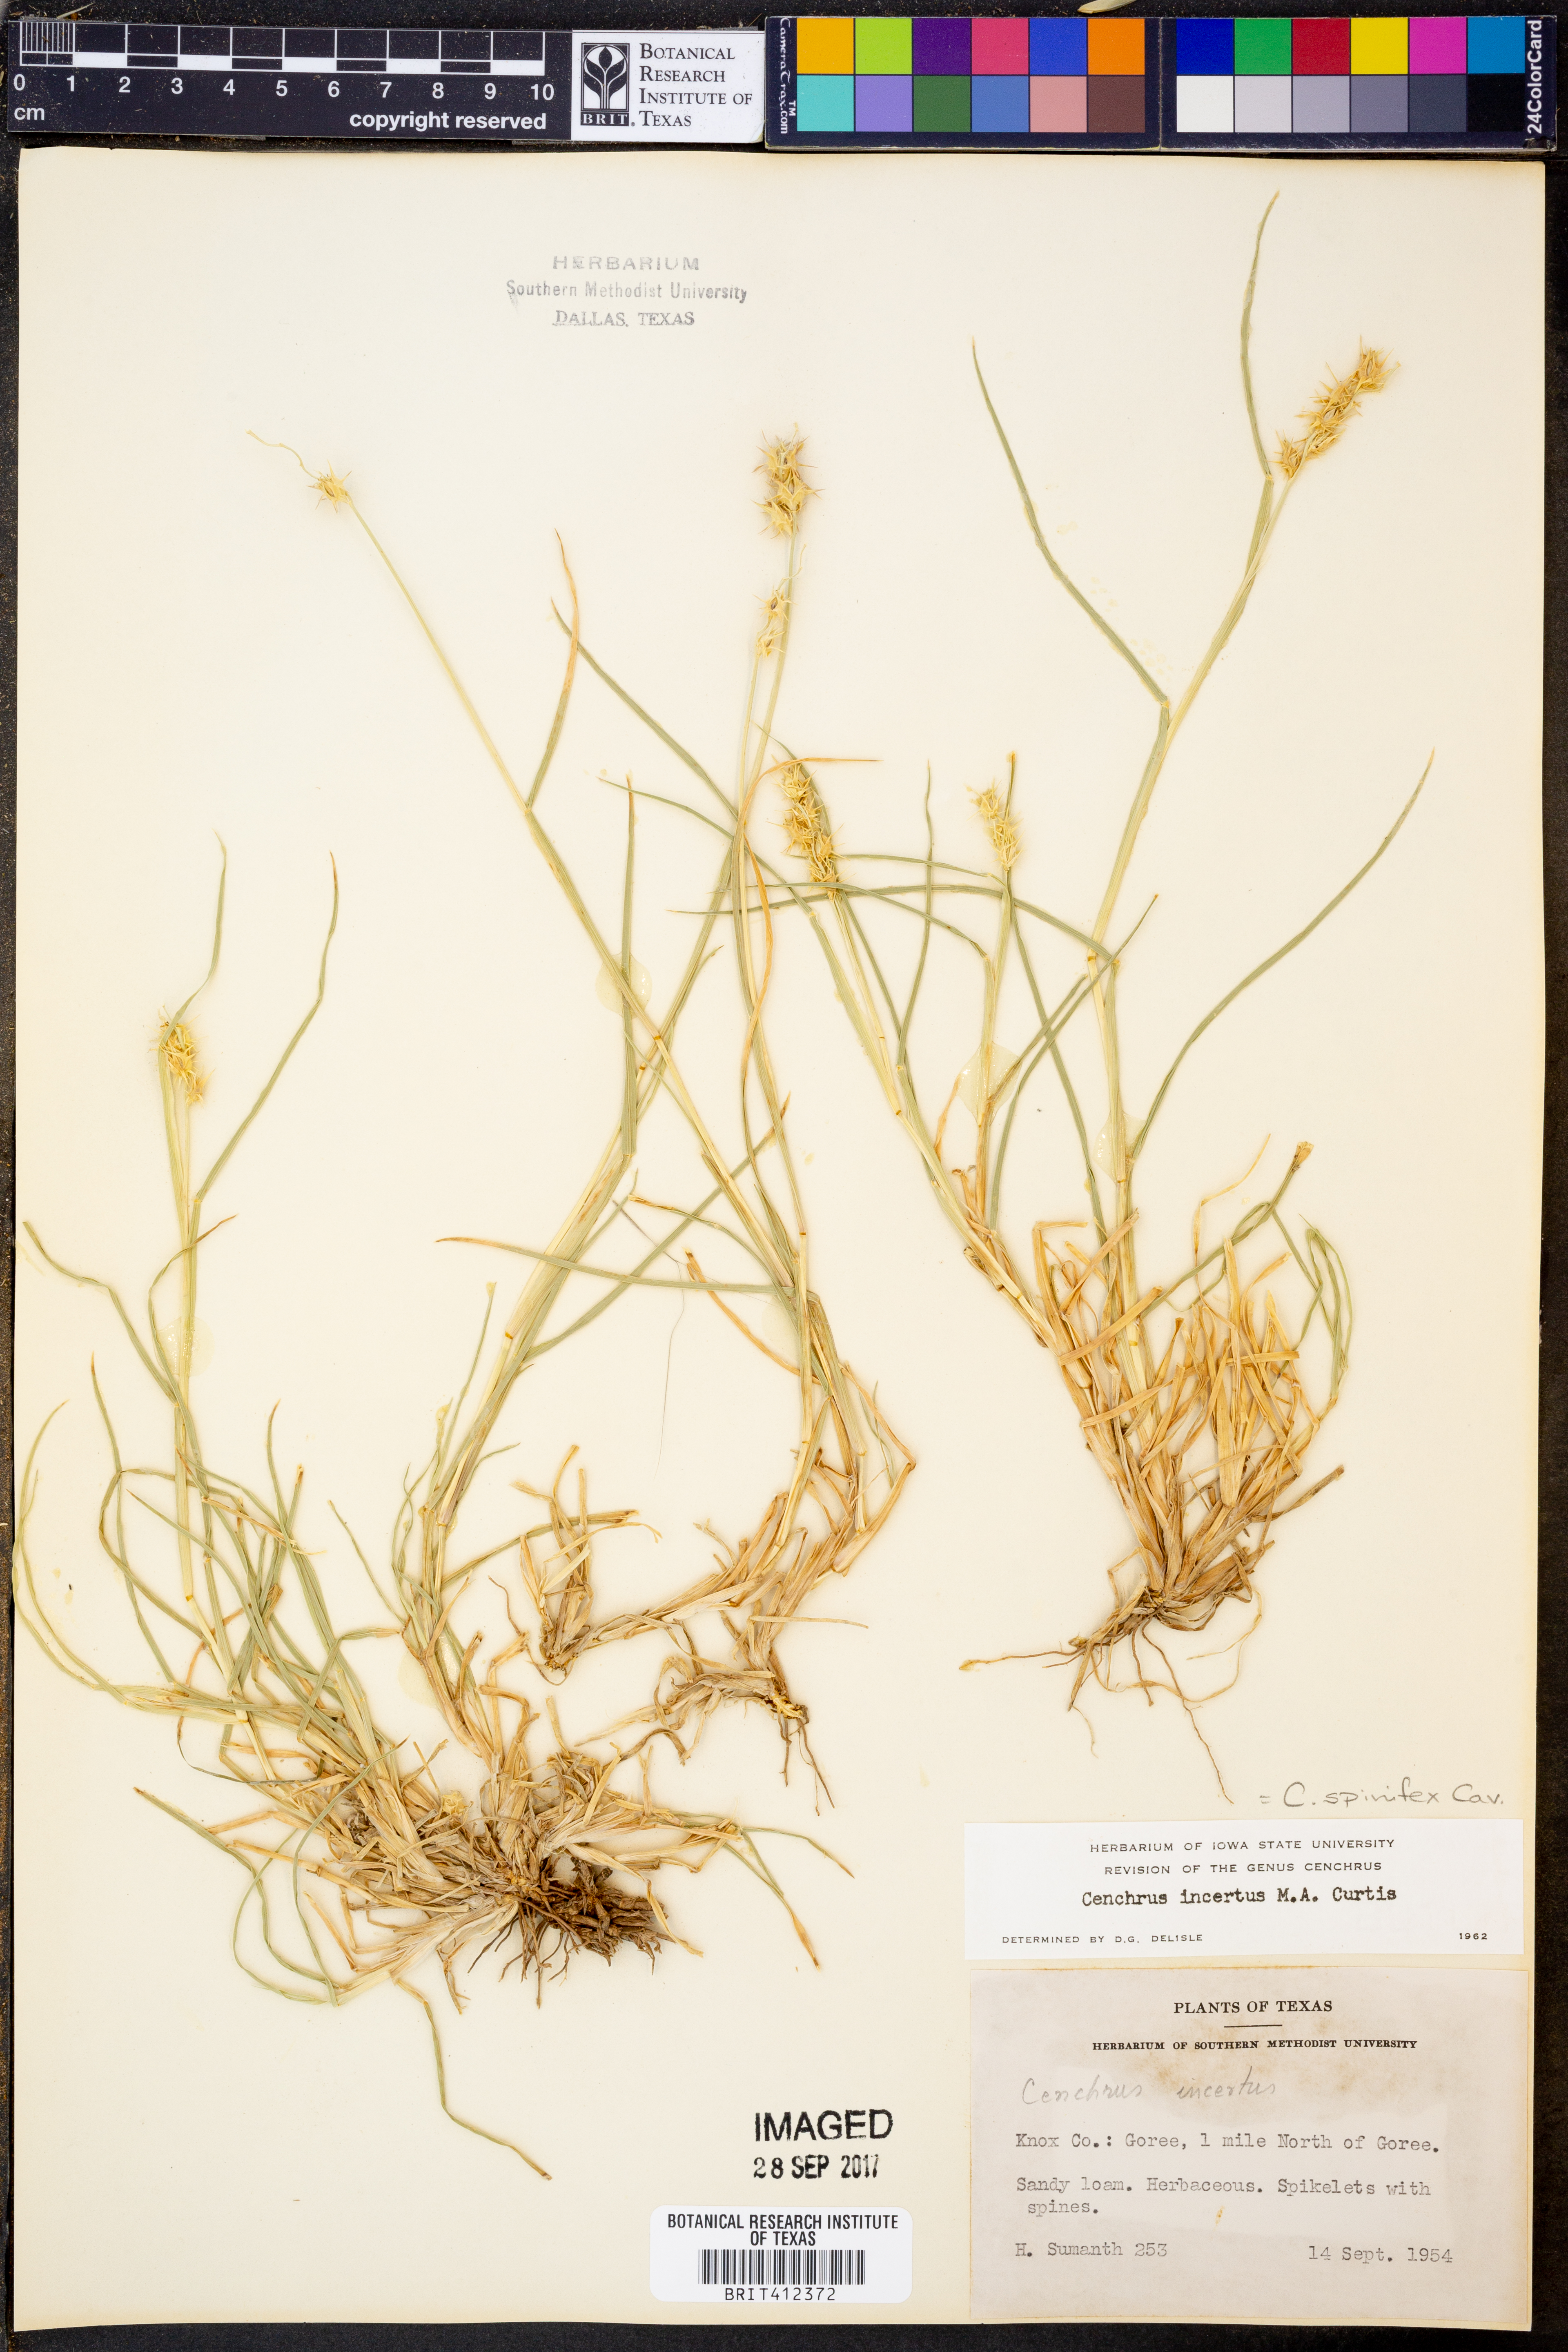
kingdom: Plantae
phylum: Tracheophyta
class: Liliopsida
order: Poales
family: Poaceae
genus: Cenchrus
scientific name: Cenchrus spinifex
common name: Coast sandbur
